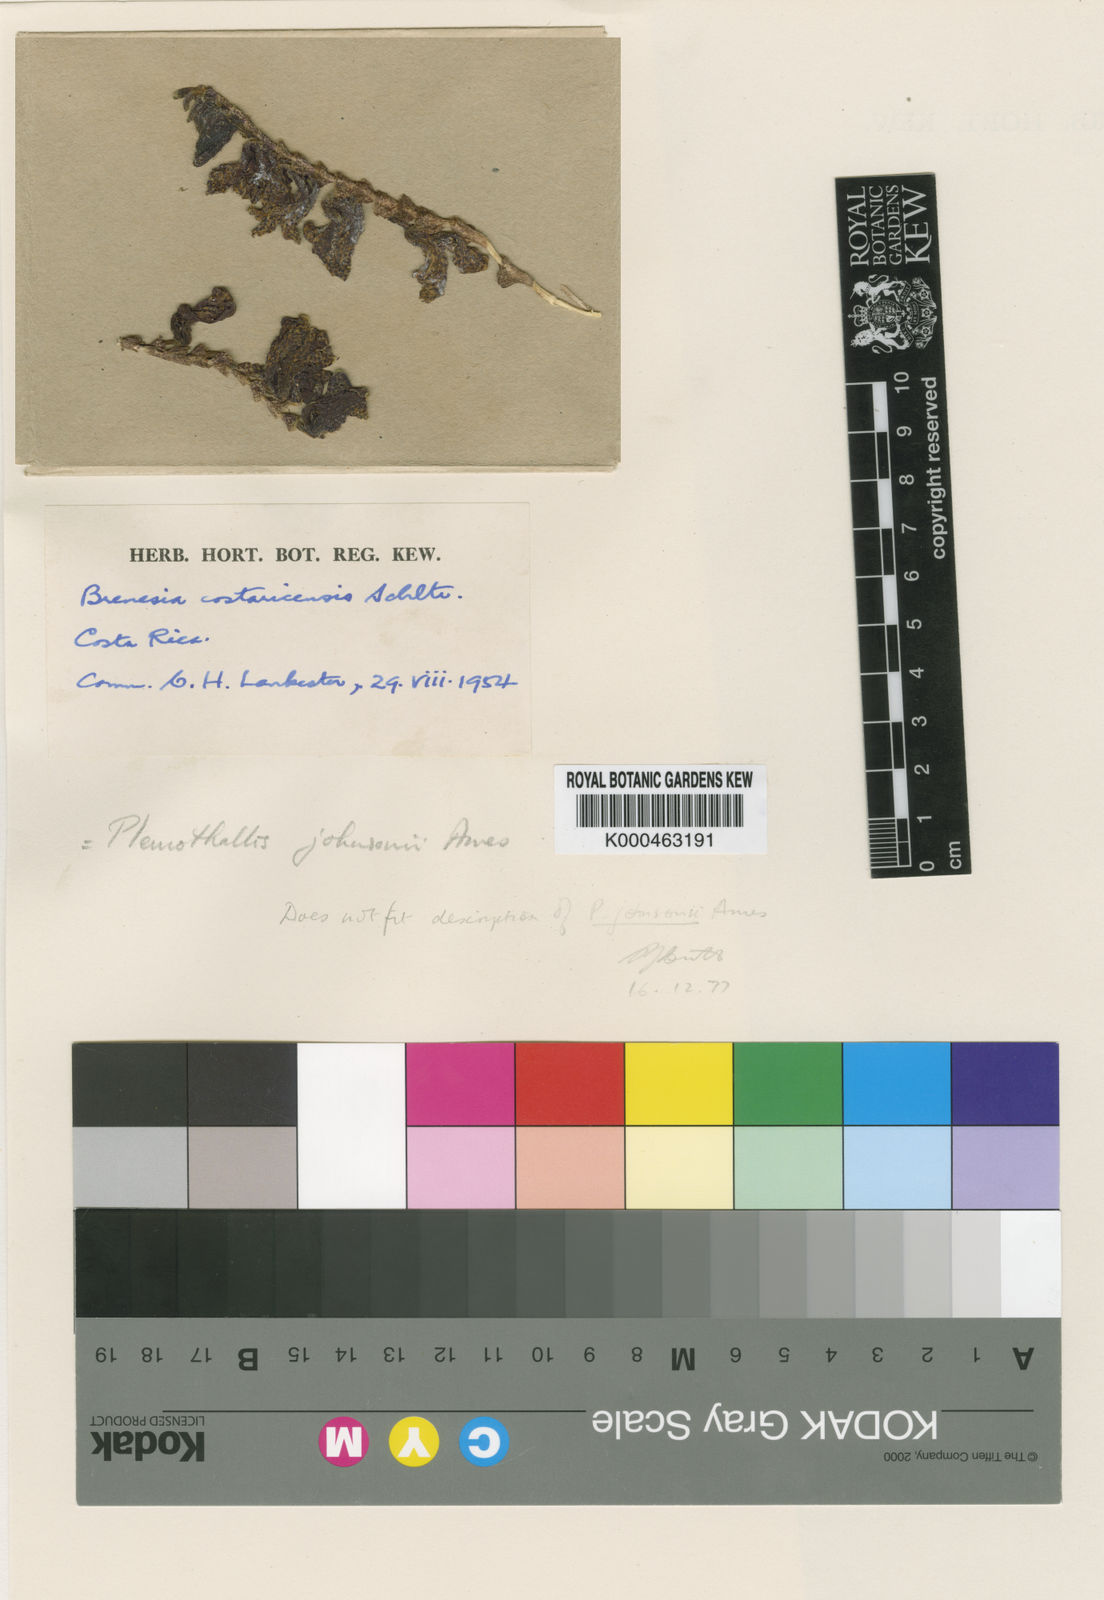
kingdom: Plantae
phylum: Tracheophyta
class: Liliopsida
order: Asparagales
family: Orchidaceae
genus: Acianthera
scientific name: Acianthera costaricensis
